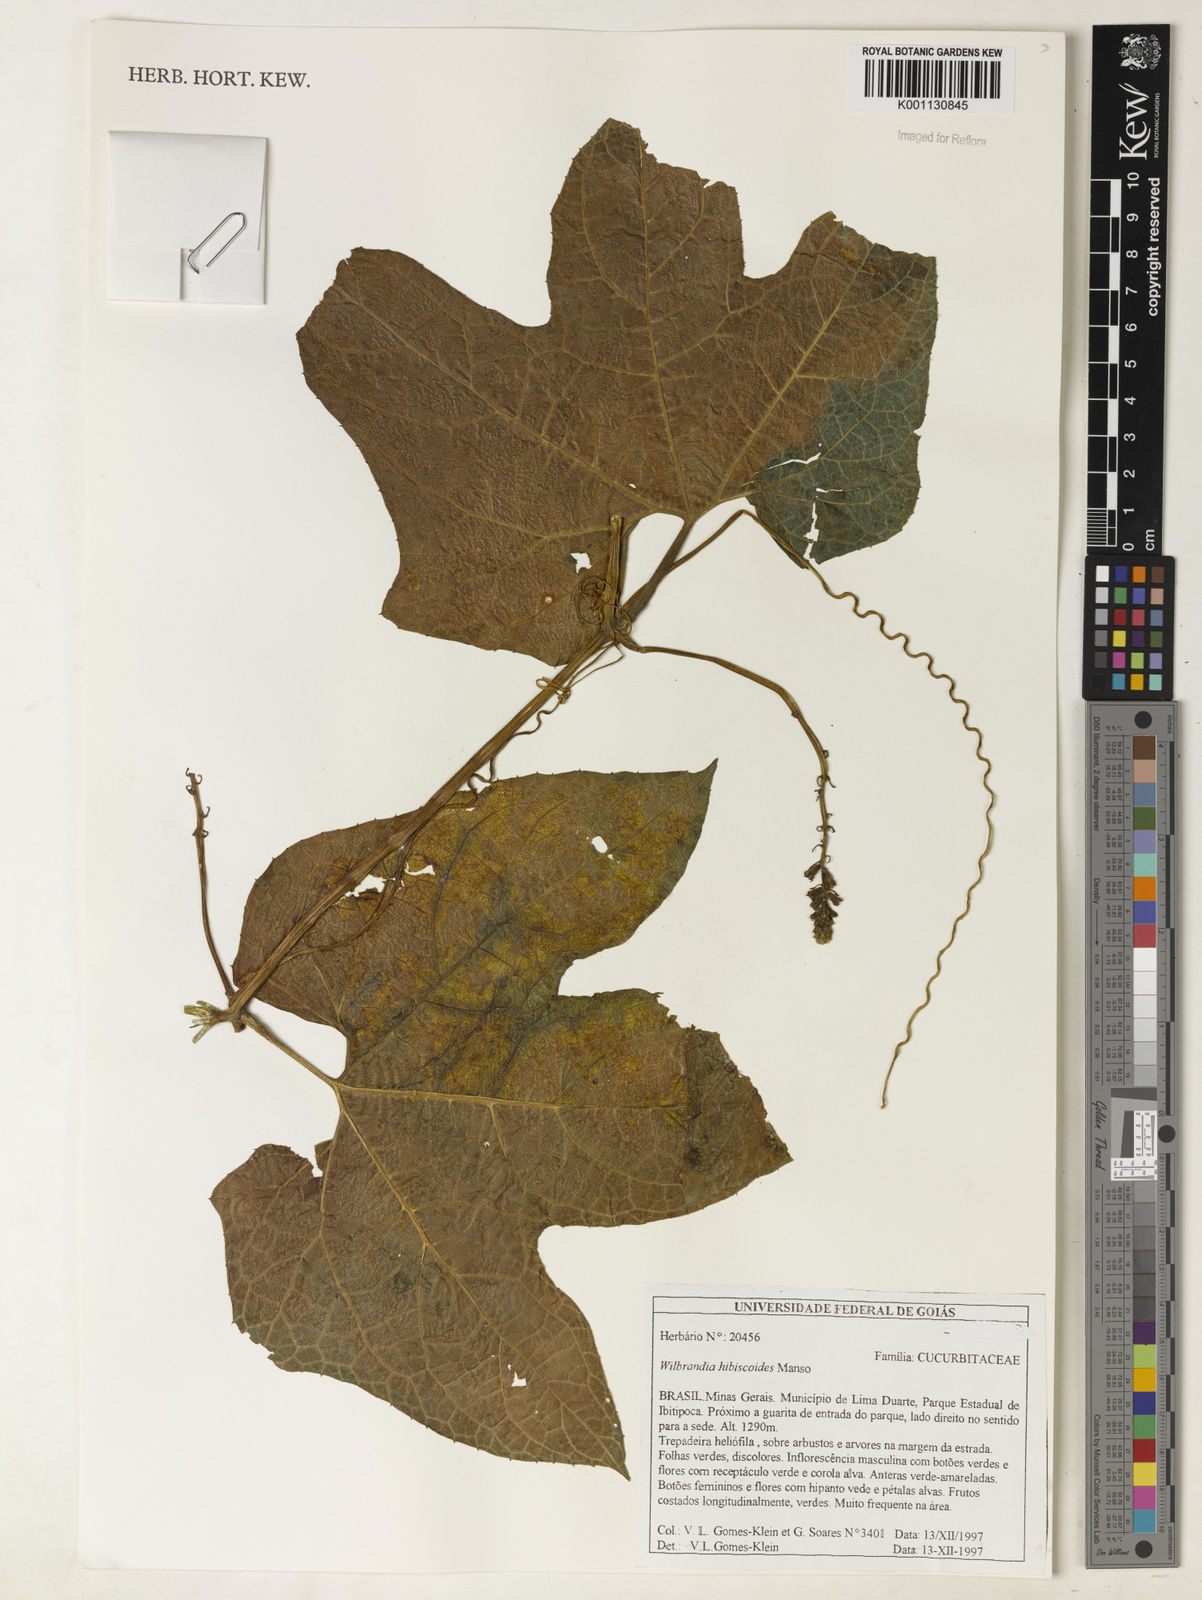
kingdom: Plantae
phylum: Tracheophyta
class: Magnoliopsida
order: Cucurbitales
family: Cucurbitaceae
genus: Wilbrandia
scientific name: Wilbrandia hibiscoides
